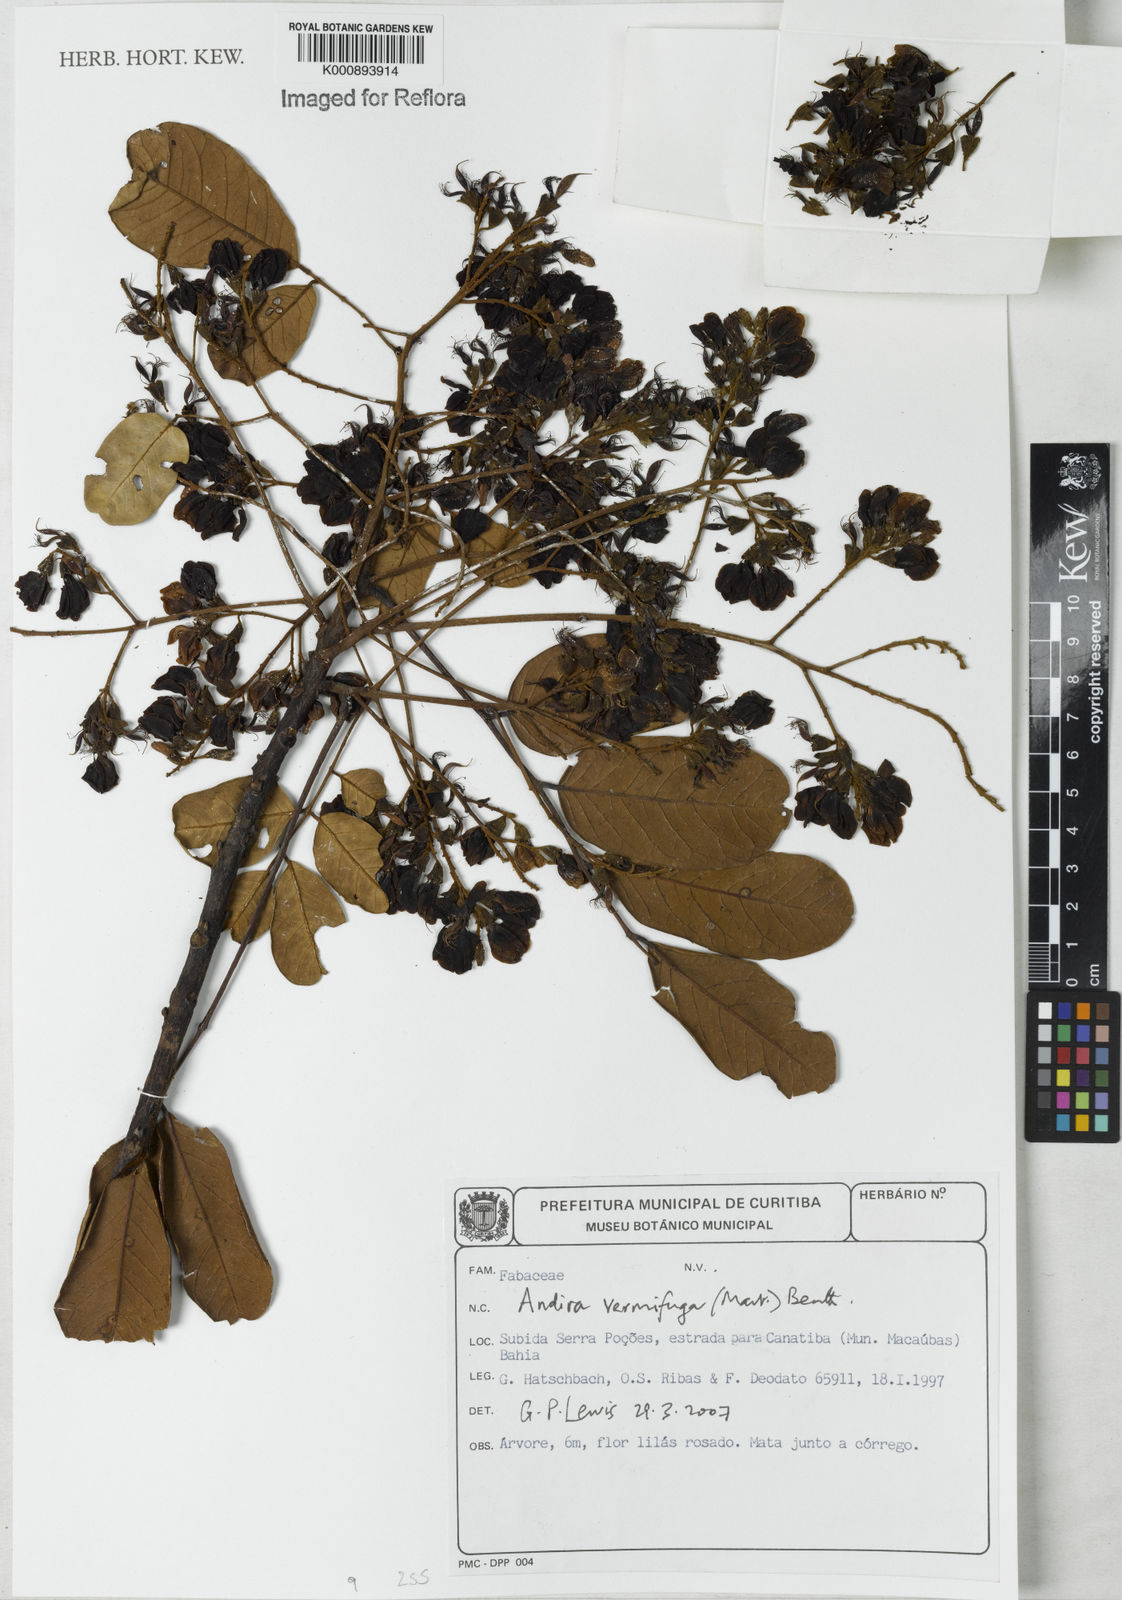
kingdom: Plantae
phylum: Tracheophyta
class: Magnoliopsida
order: Fabales
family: Fabaceae
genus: Andira
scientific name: Andira vermifuga
